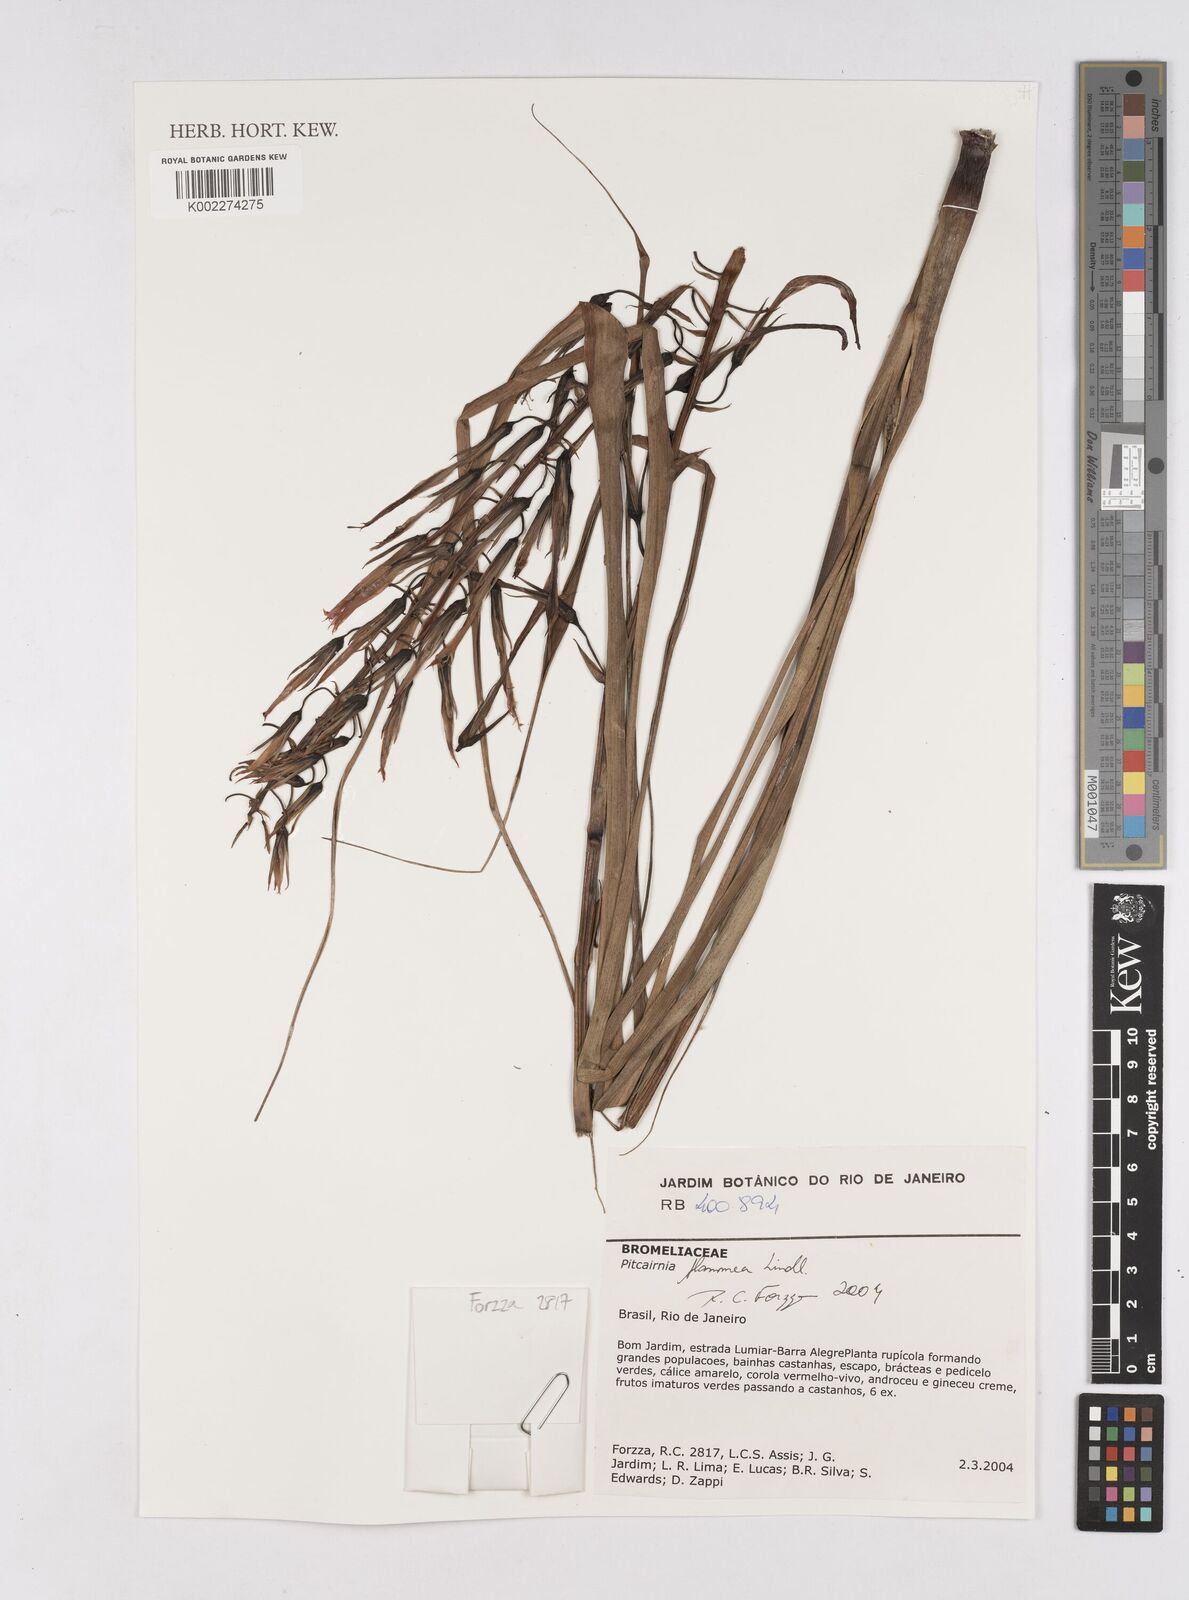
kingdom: Plantae
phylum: Tracheophyta
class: Liliopsida
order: Poales
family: Bromeliaceae
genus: Pitcairnia
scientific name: Pitcairnia flammea
